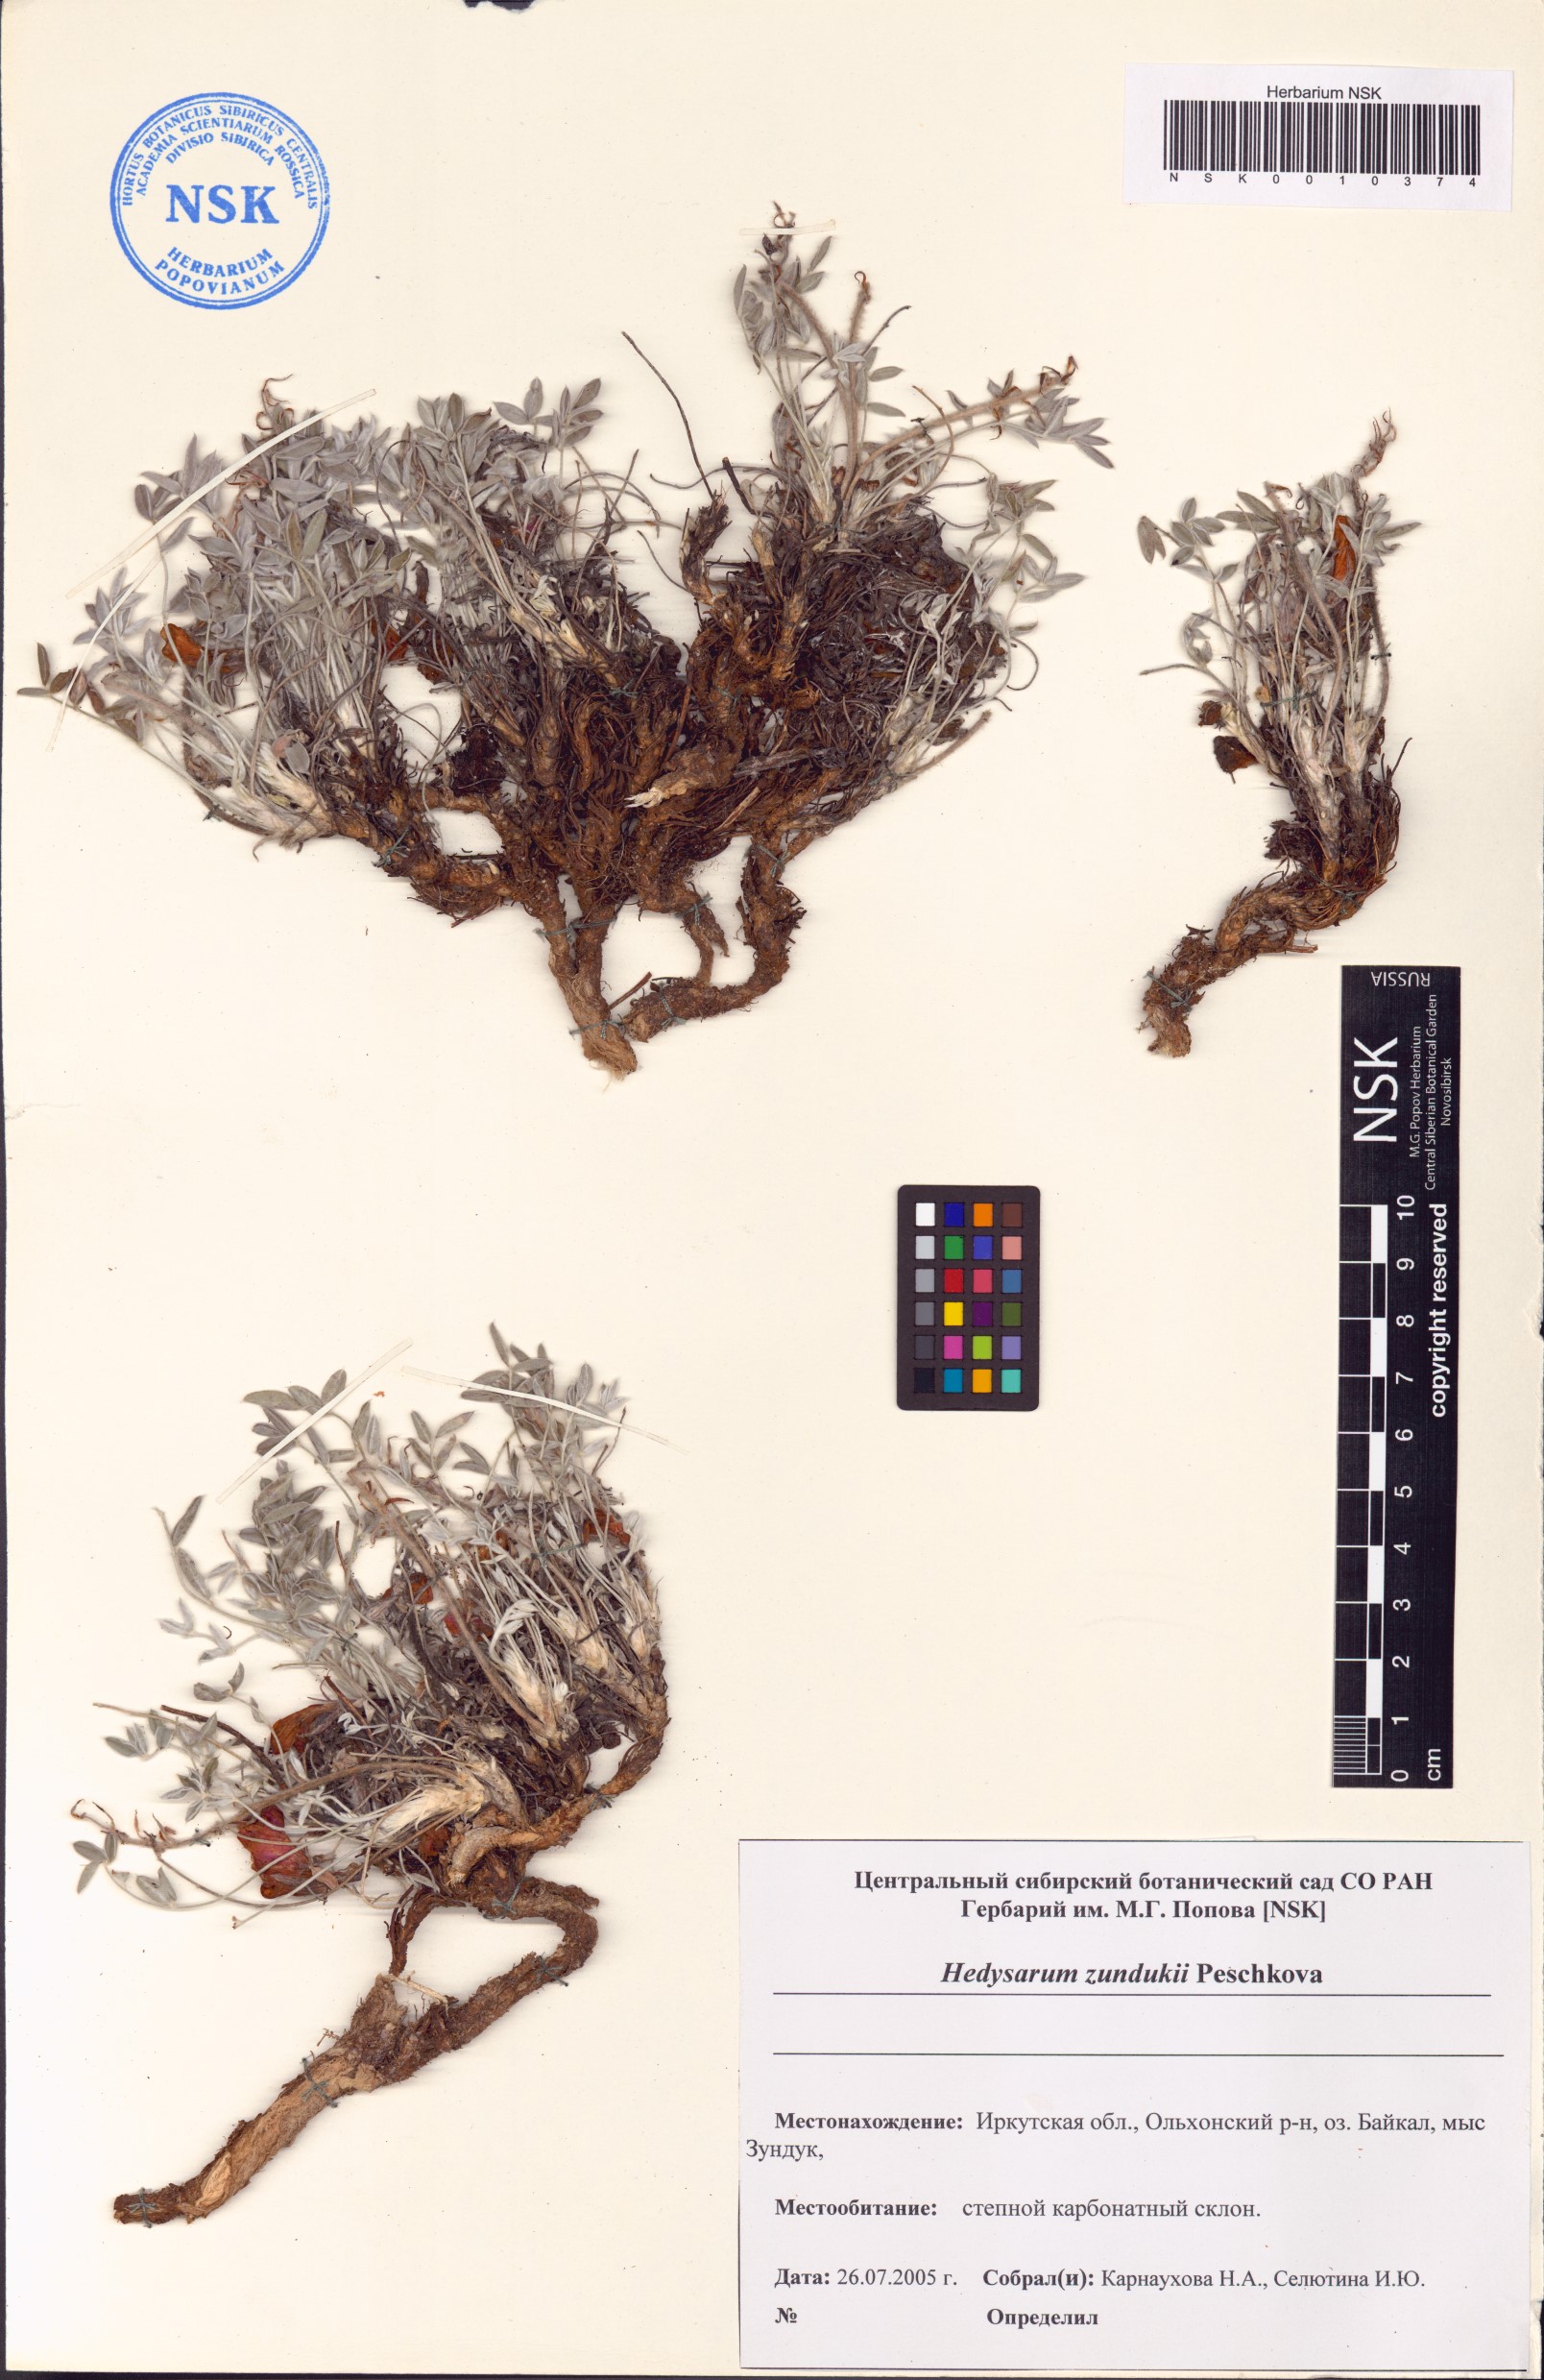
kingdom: Plantae
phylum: Tracheophyta
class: Magnoliopsida
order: Fabales
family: Fabaceae
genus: Hedysarum
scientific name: Hedysarum zundukii
